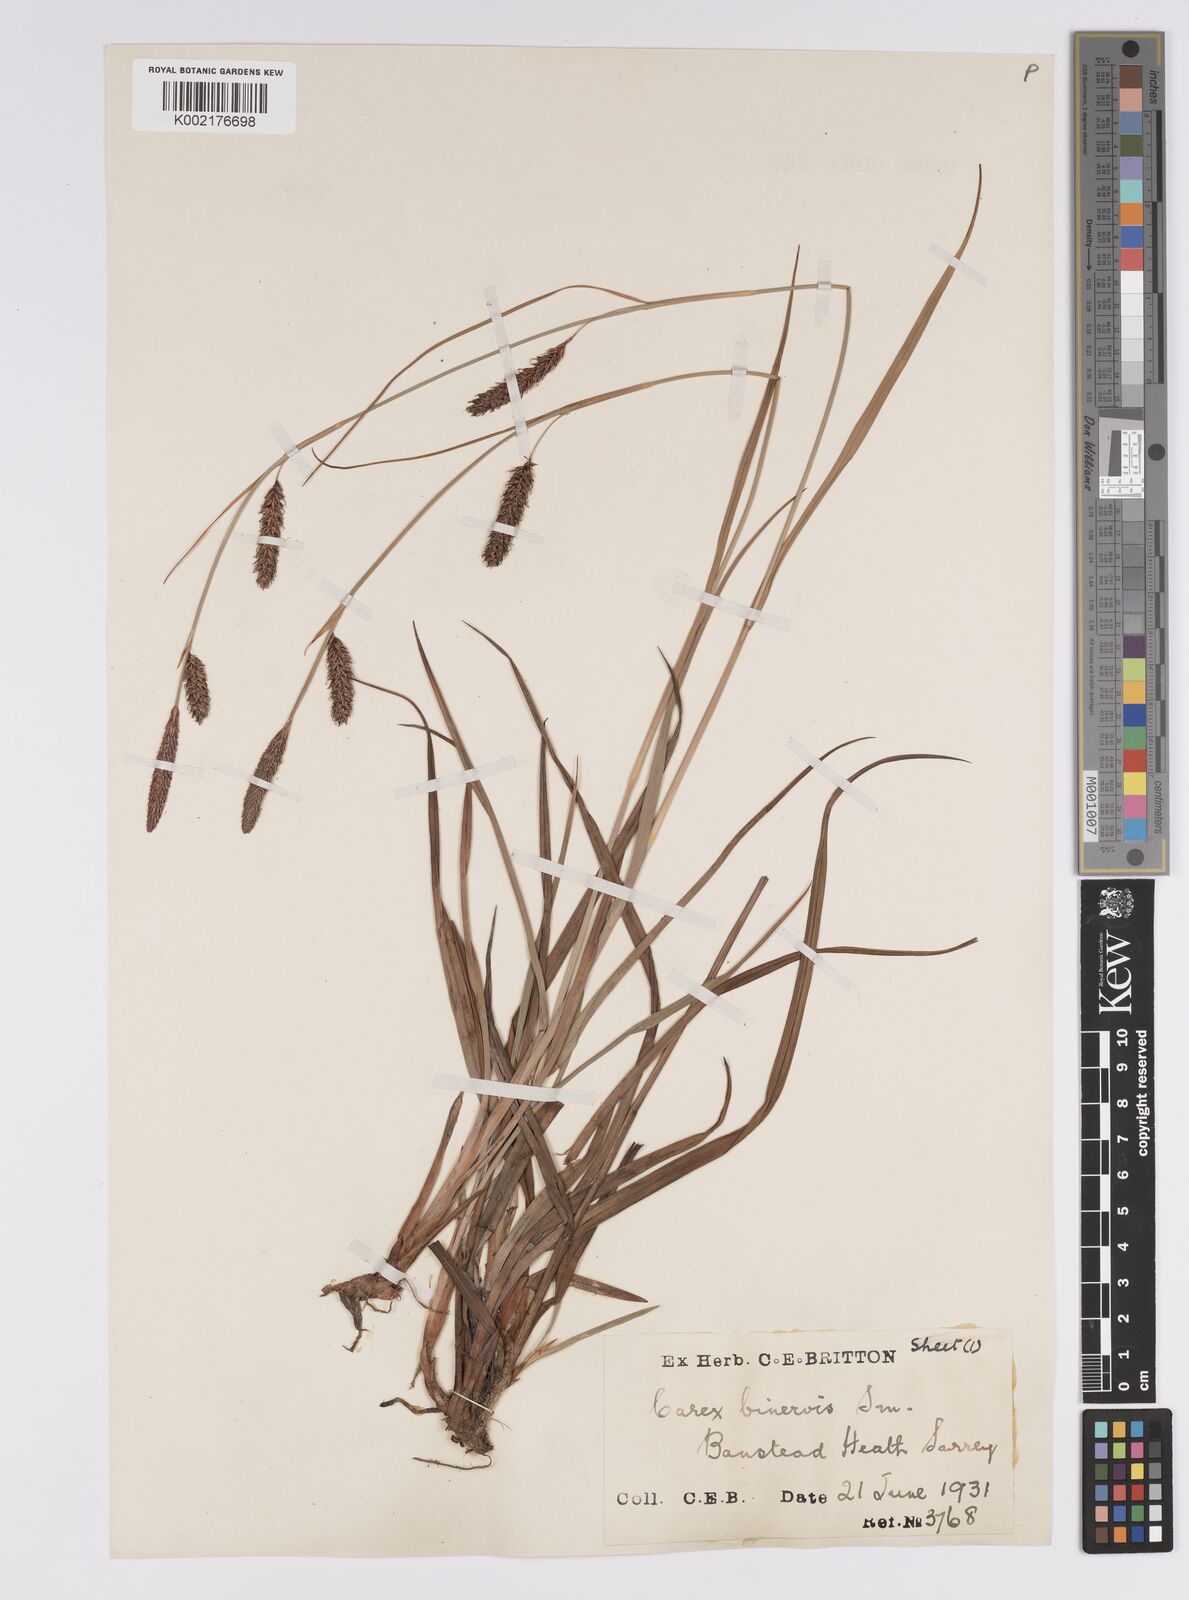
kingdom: Plantae
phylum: Tracheophyta
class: Liliopsida
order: Poales
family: Cyperaceae
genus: Carex
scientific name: Carex binervis
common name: Green-ribbed sedge
